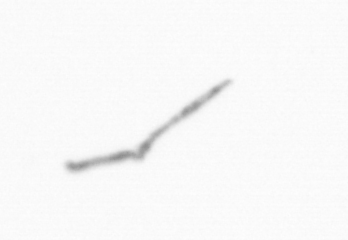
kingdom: Chromista
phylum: Ochrophyta
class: Bacillariophyceae
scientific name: Bacillariophyceae
